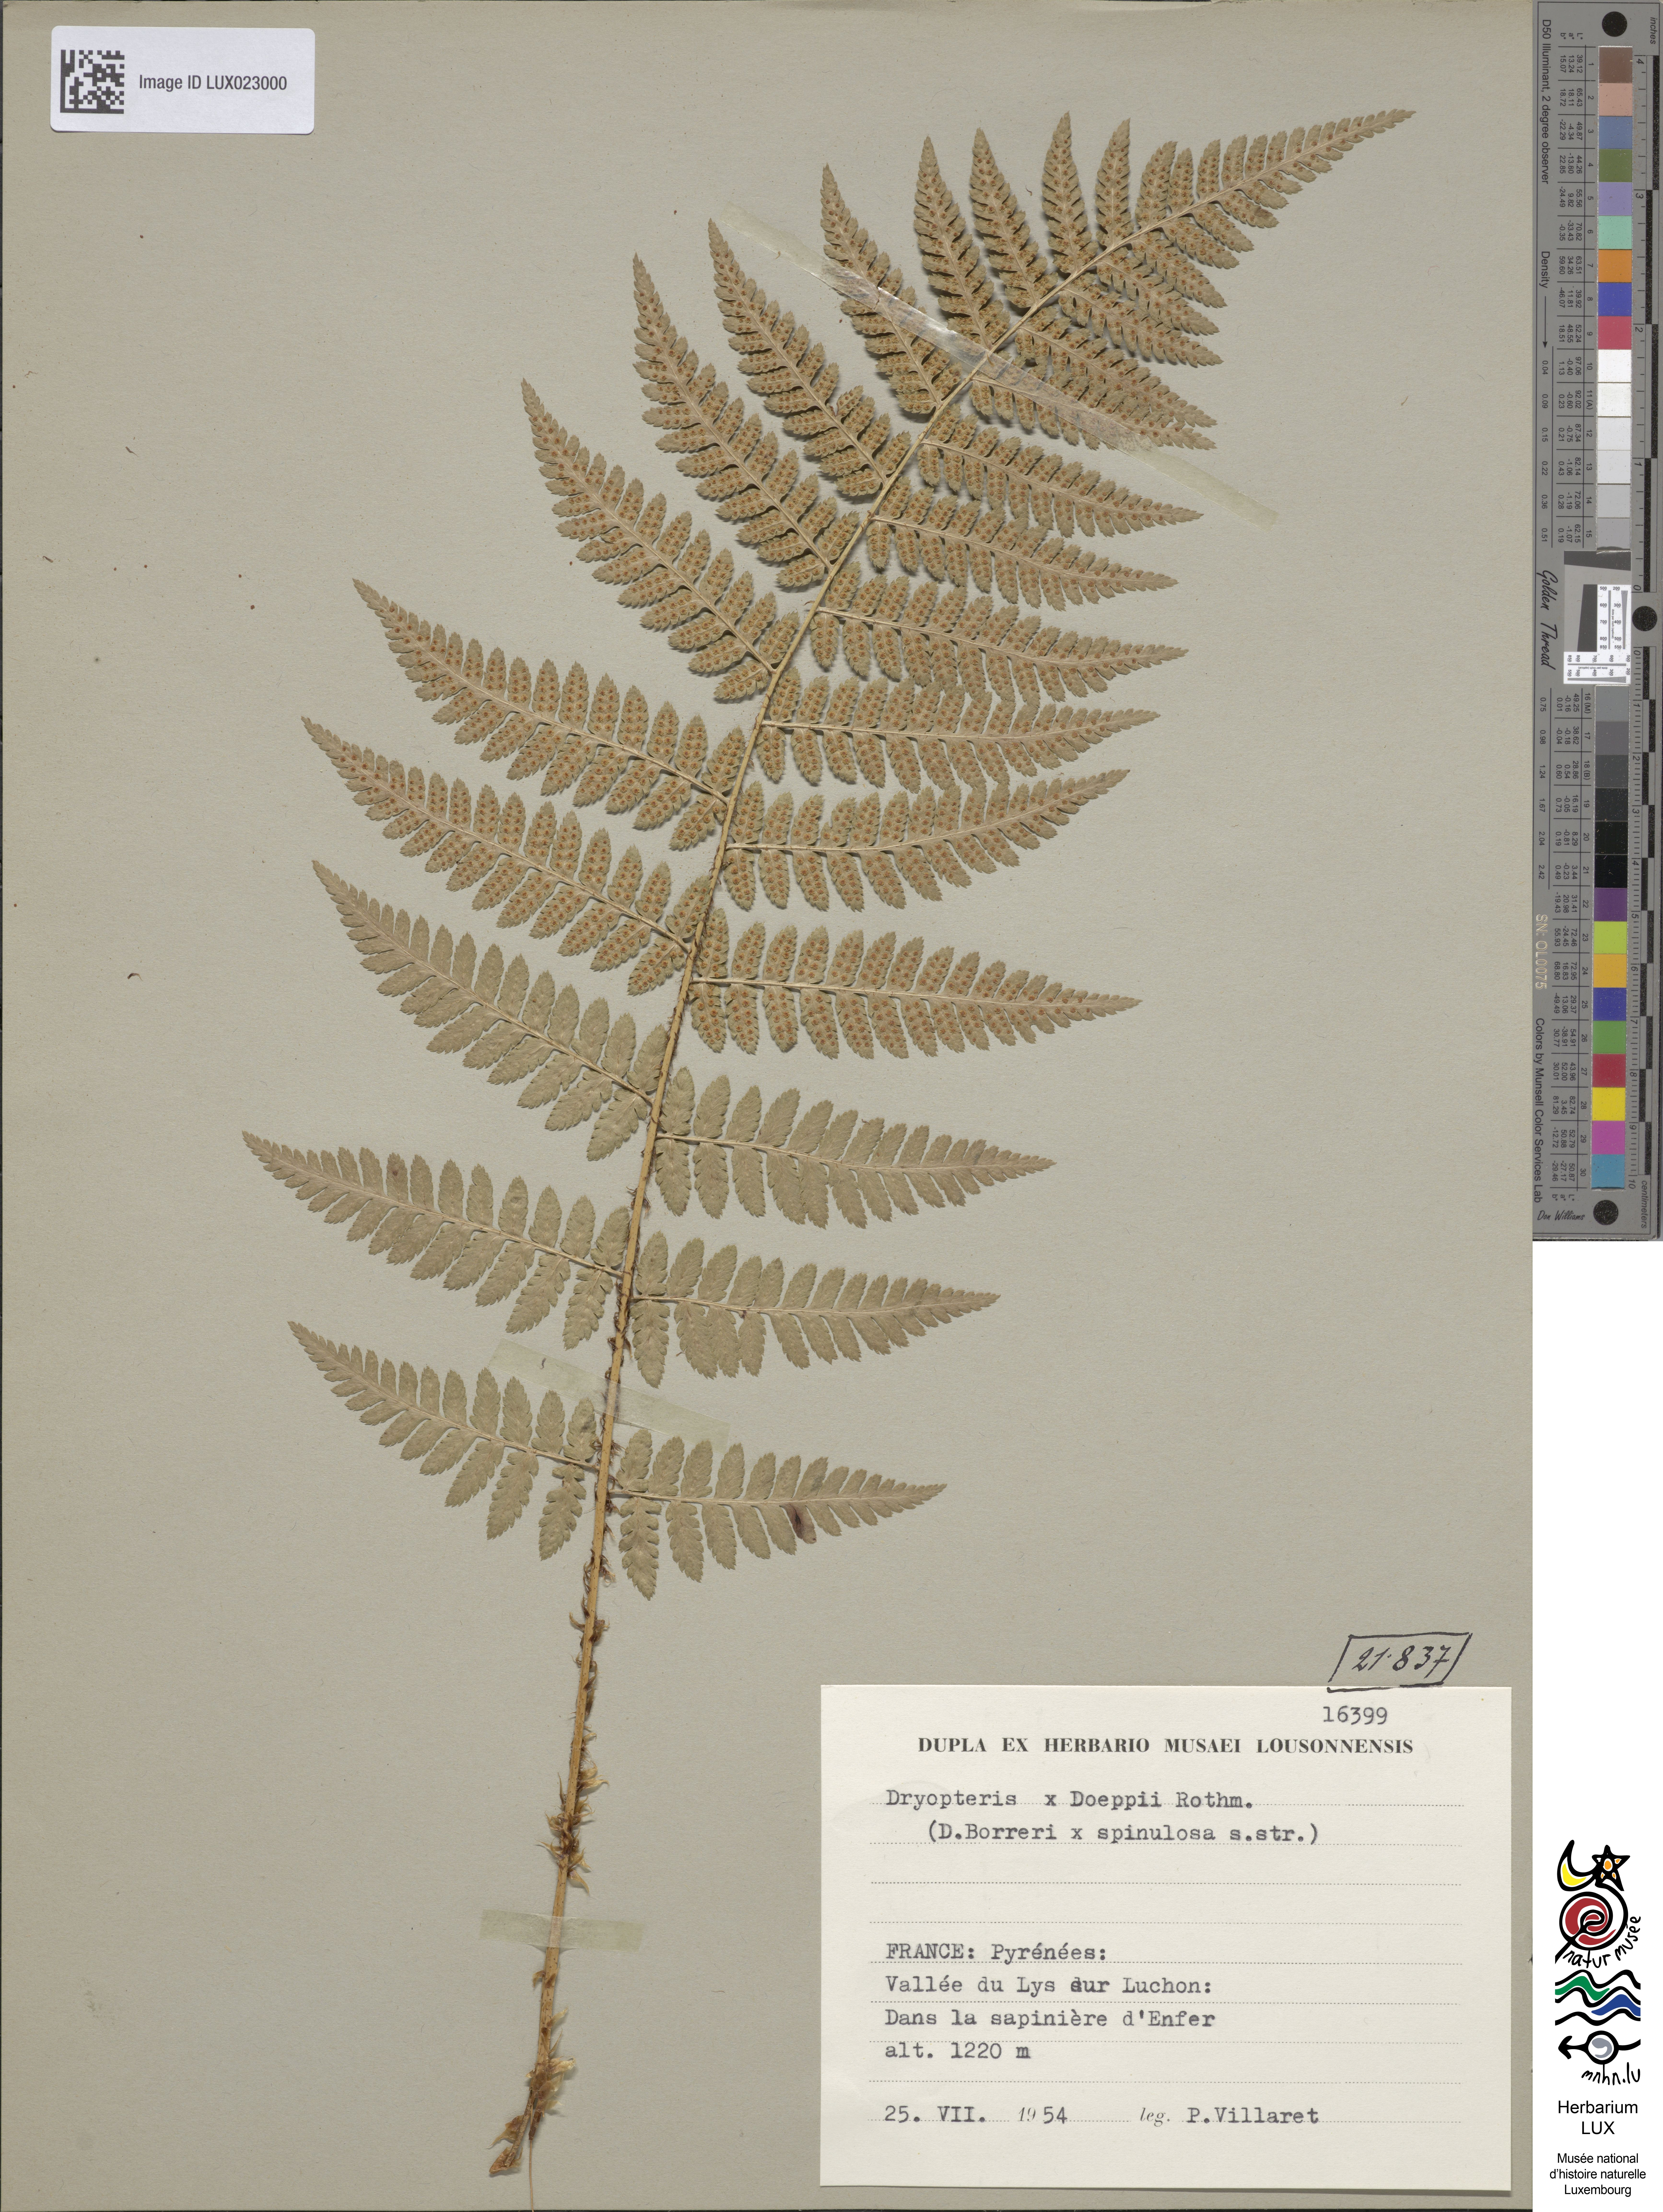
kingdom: Plantae
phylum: Tracheophyta
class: Polypodiopsida
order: Polypodiales
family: Dryopteridaceae
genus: Dryopteris
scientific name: Dryopteris doeppii
